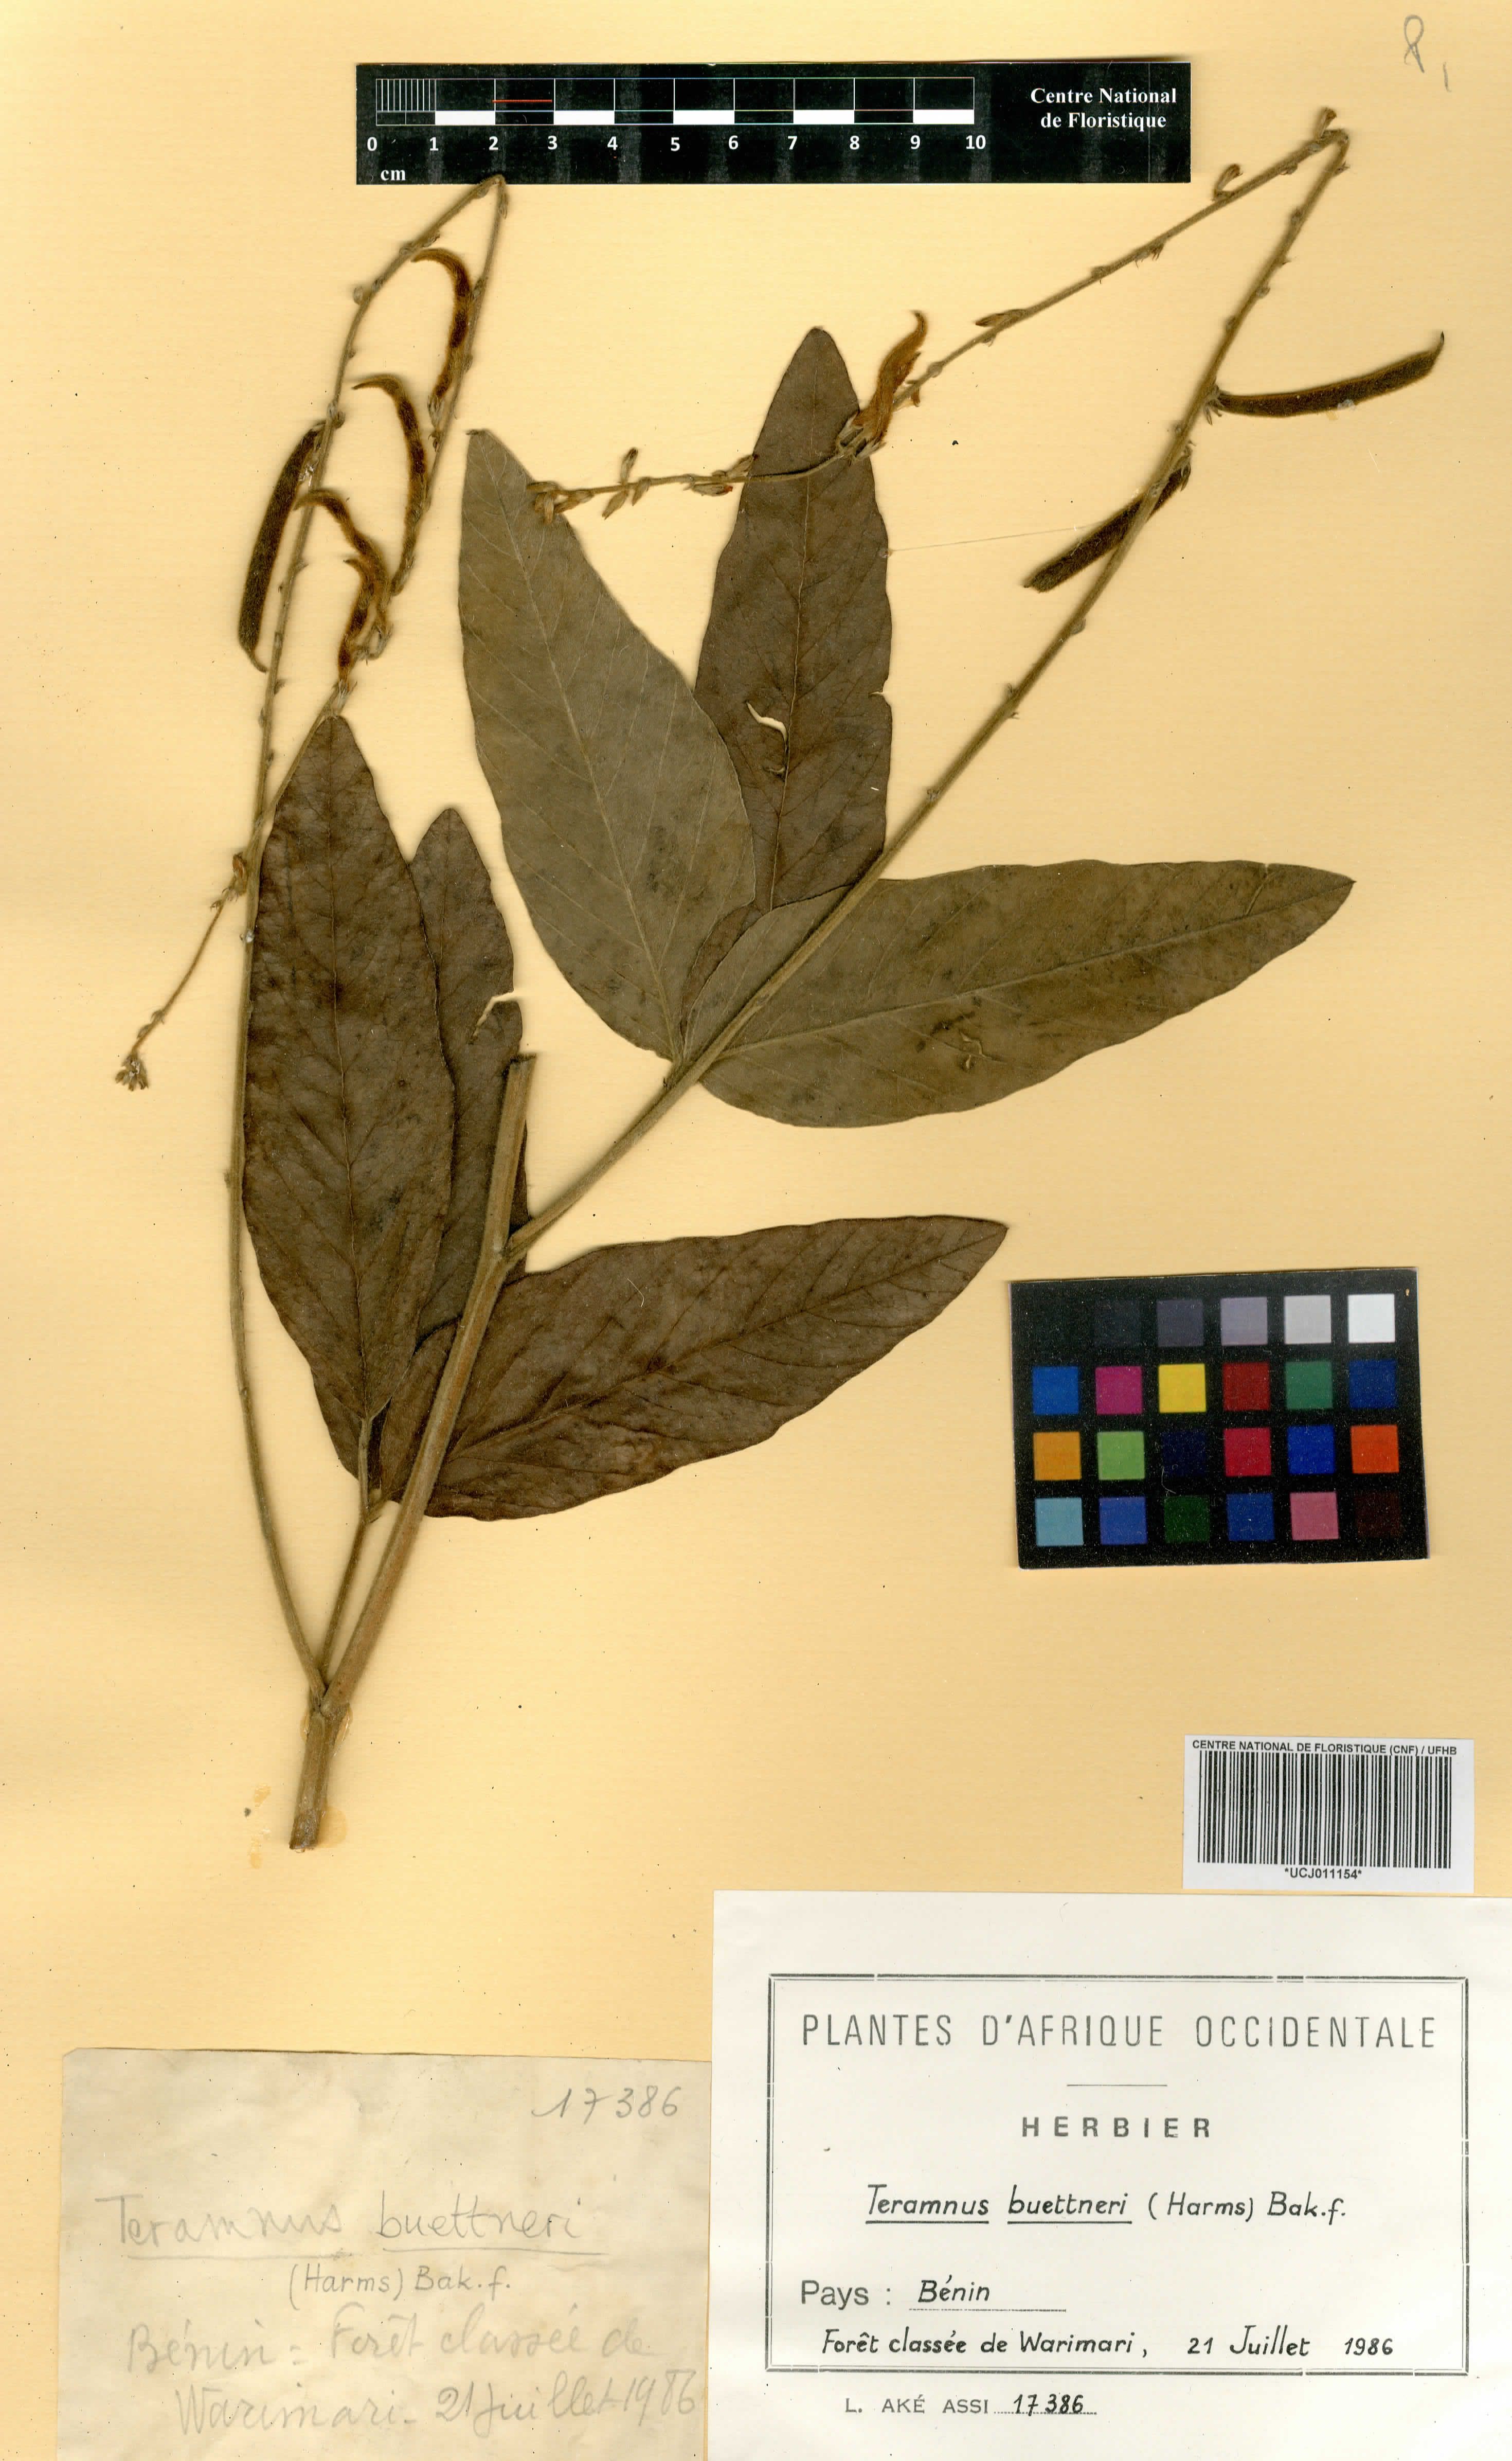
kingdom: Plantae
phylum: Tracheophyta
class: Magnoliopsida
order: Fabales
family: Fabaceae
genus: Teramnus
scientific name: Teramnus buettneri
